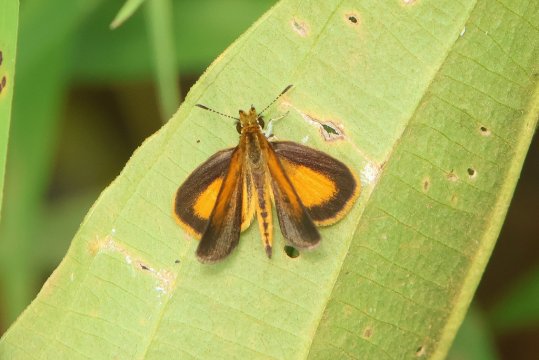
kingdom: Animalia
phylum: Arthropoda
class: Insecta
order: Lepidoptera
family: Hesperiidae
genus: Ancyloxypha
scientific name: Ancyloxypha numitor
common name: Least Skipper
